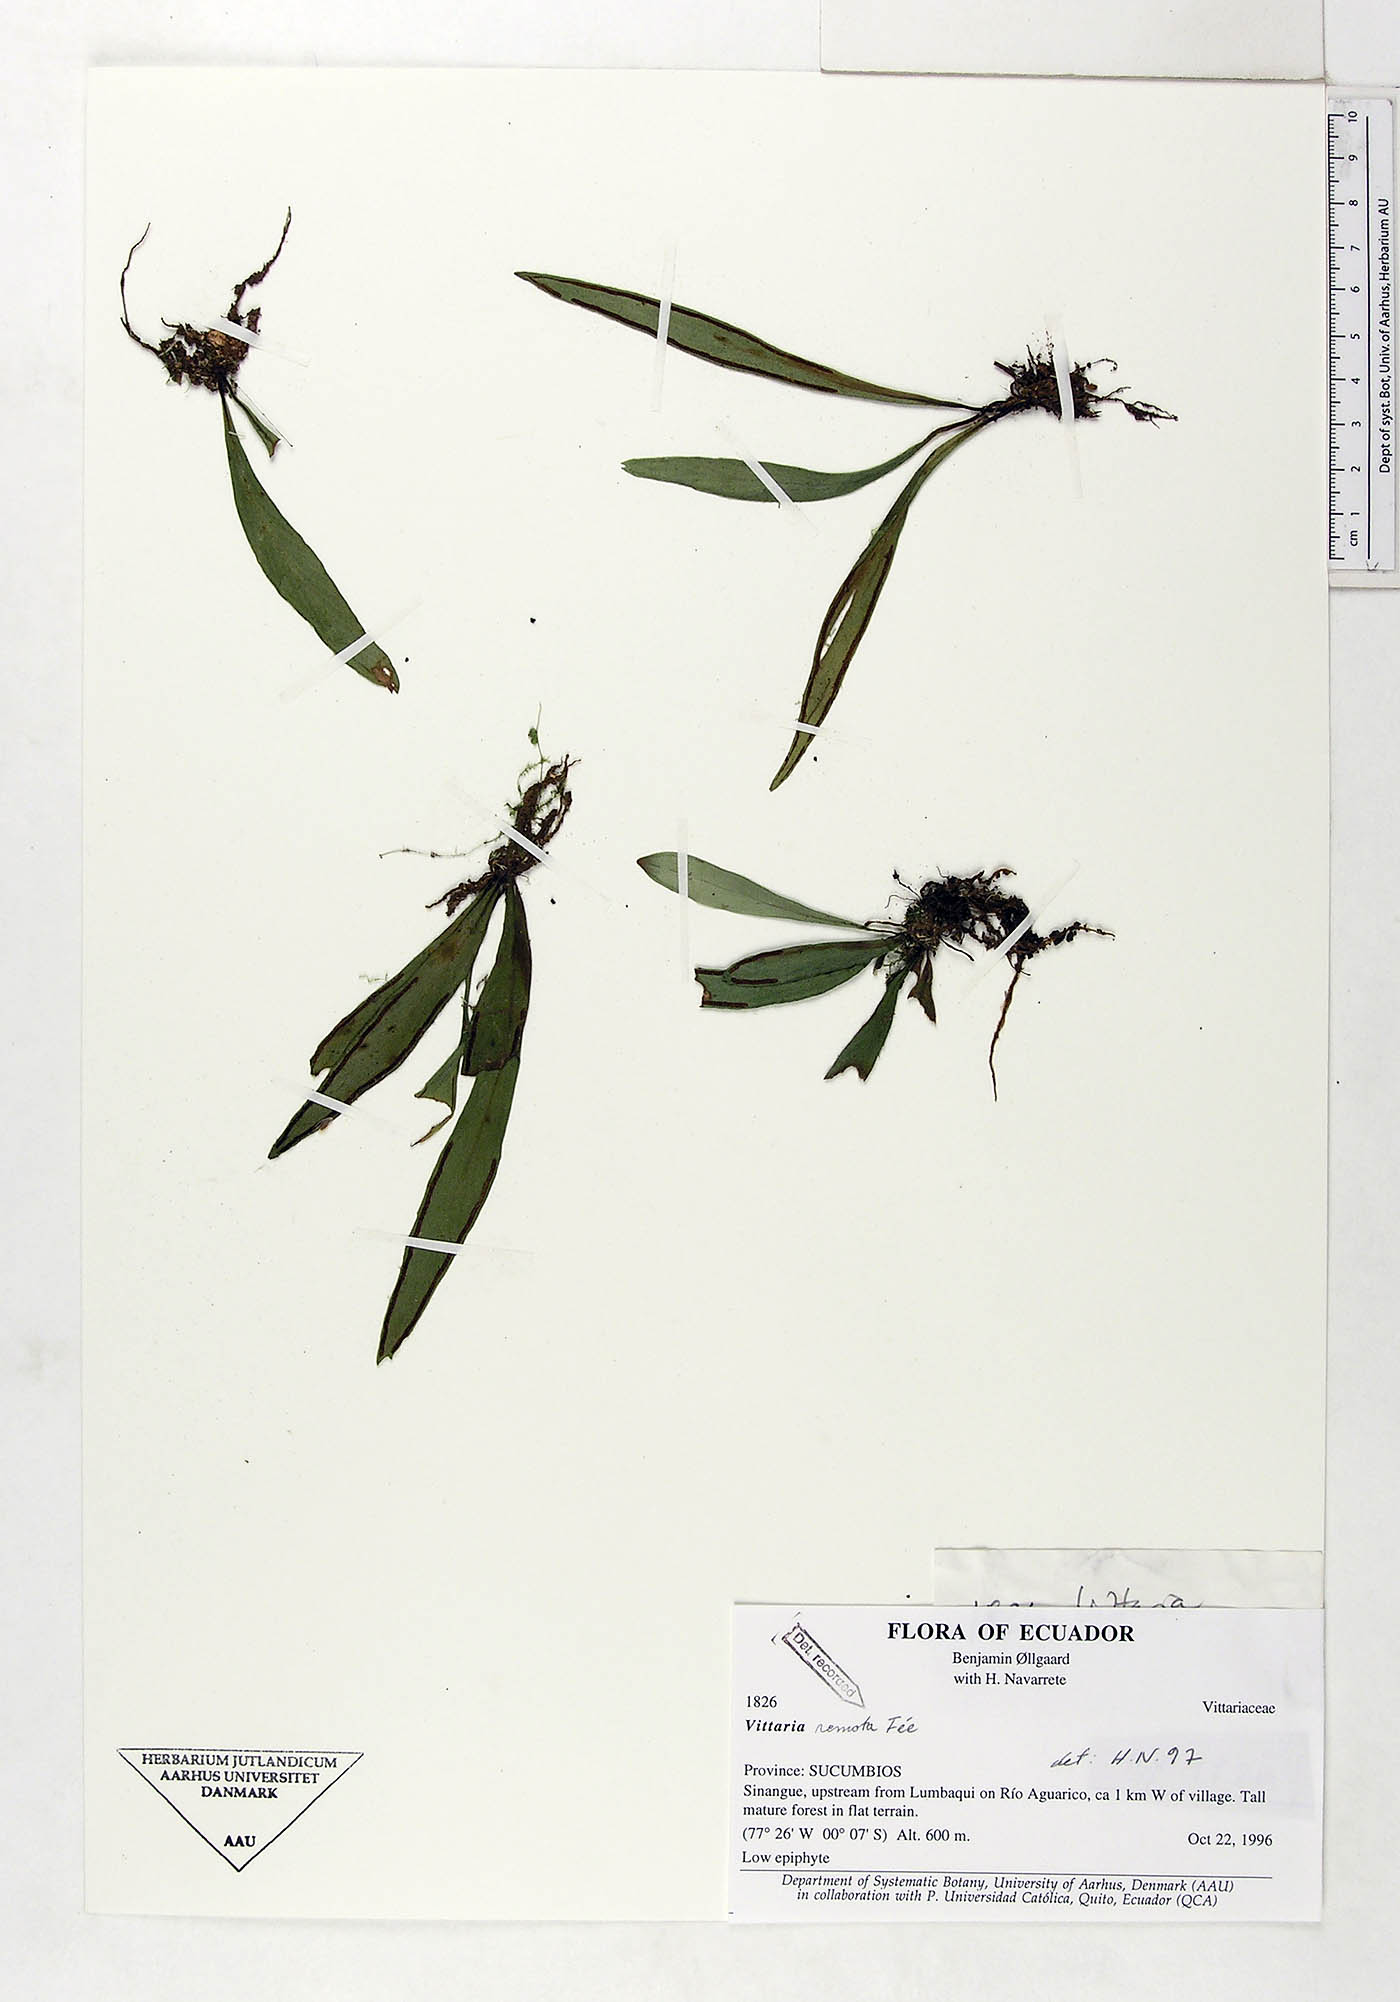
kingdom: Plantae
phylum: Tracheophyta
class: Polypodiopsida
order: Polypodiales
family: Pteridaceae
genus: Radiovittaria
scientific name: Radiovittaria remota
